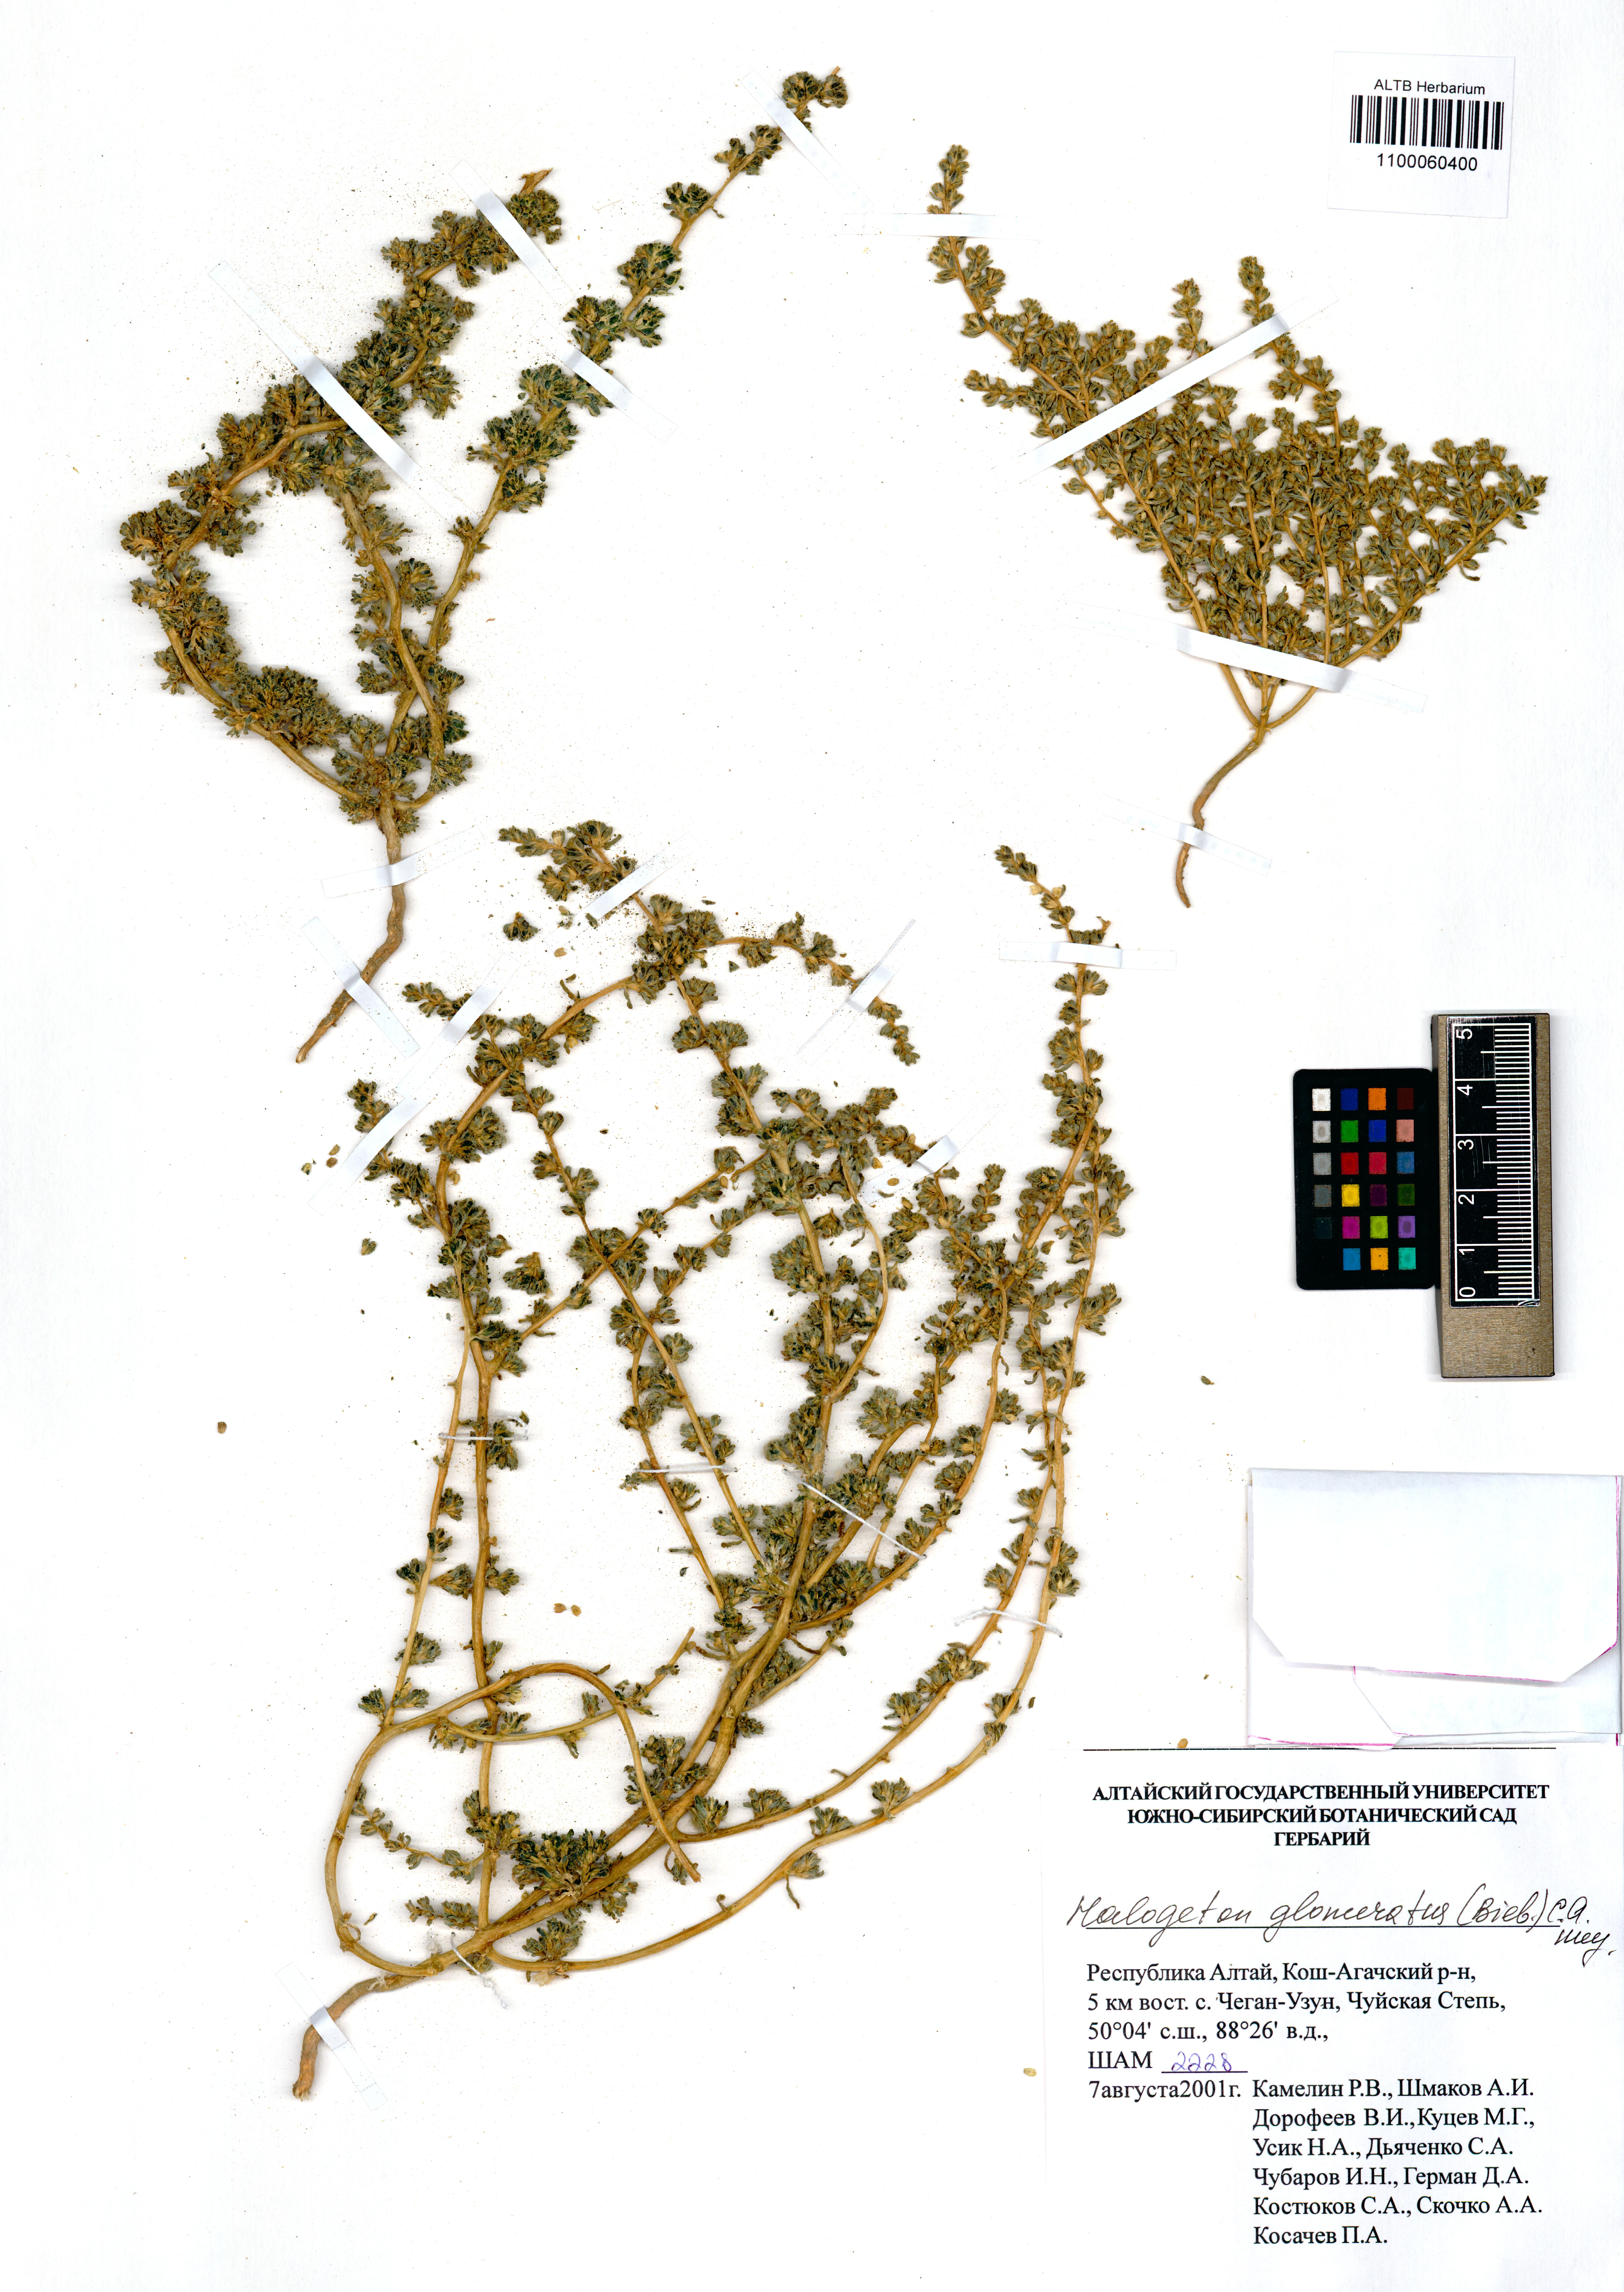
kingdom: Plantae
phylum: Tracheophyta
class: Magnoliopsida
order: Caryophyllales
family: Amaranthaceae
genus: Halogeton
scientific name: Halogeton glomeratus
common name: Saltlover
